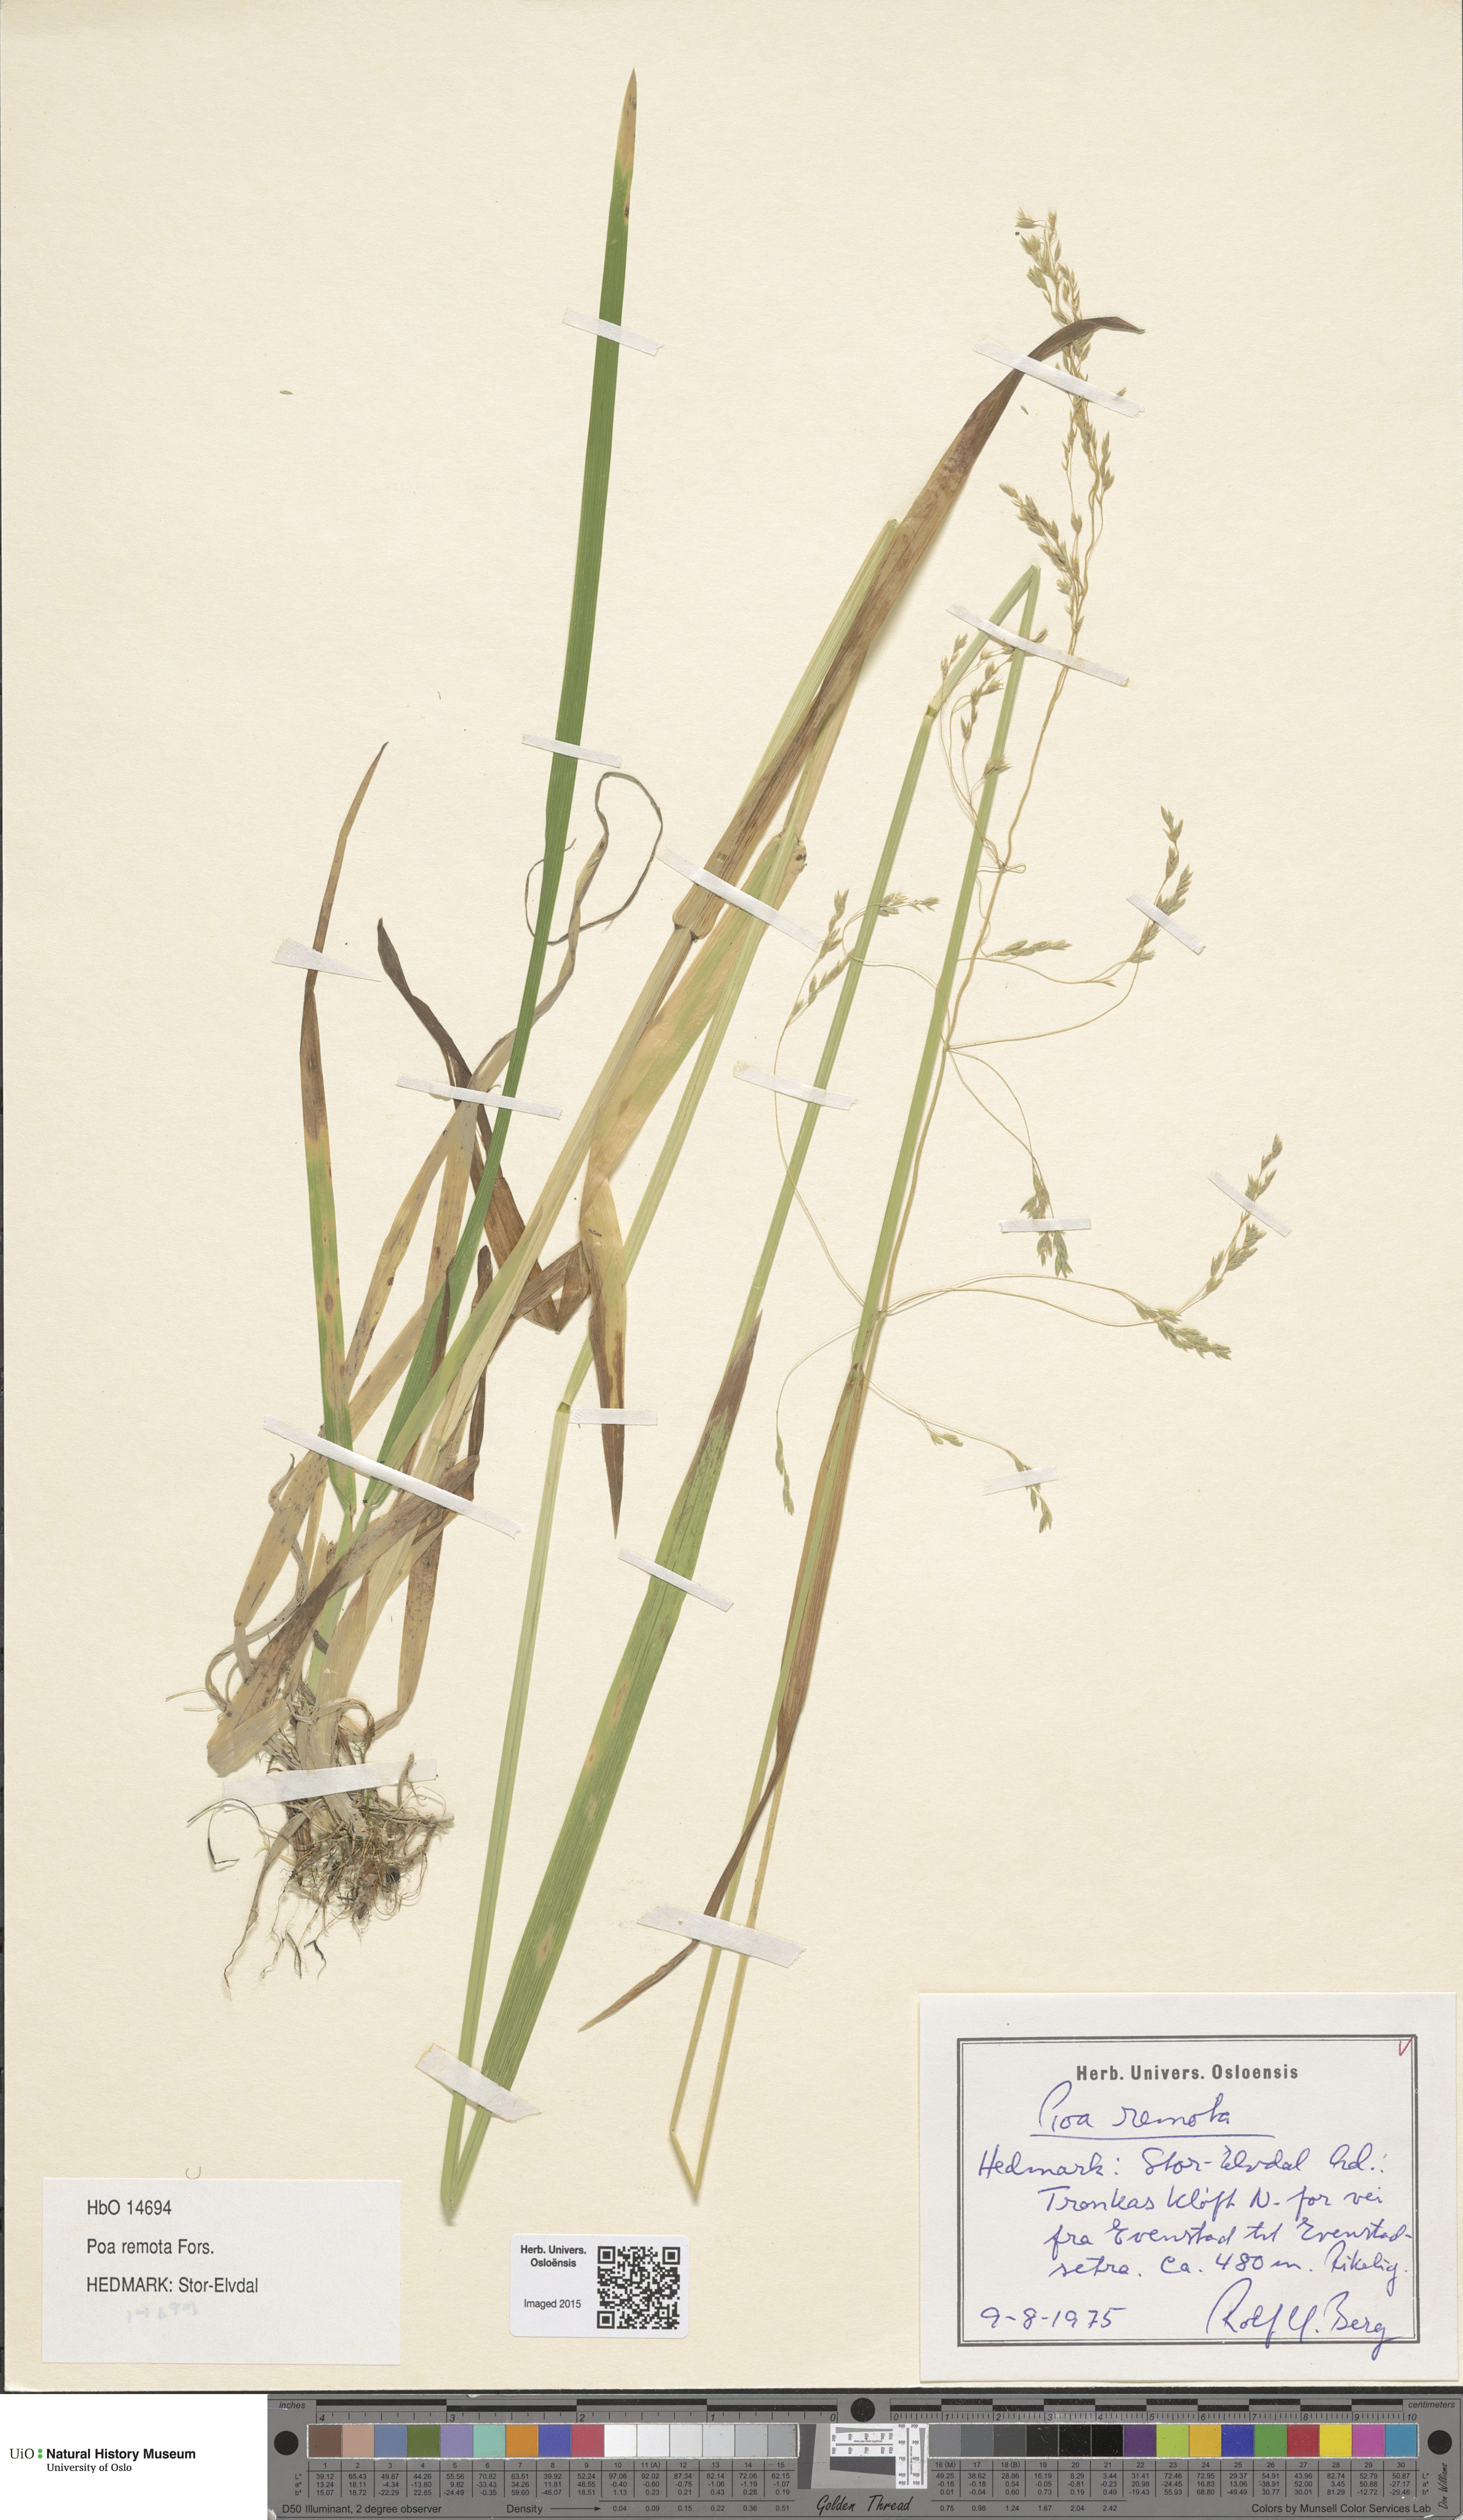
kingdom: Plantae
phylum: Tracheophyta
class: Liliopsida
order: Poales
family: Poaceae
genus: Poa
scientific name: Poa remota
